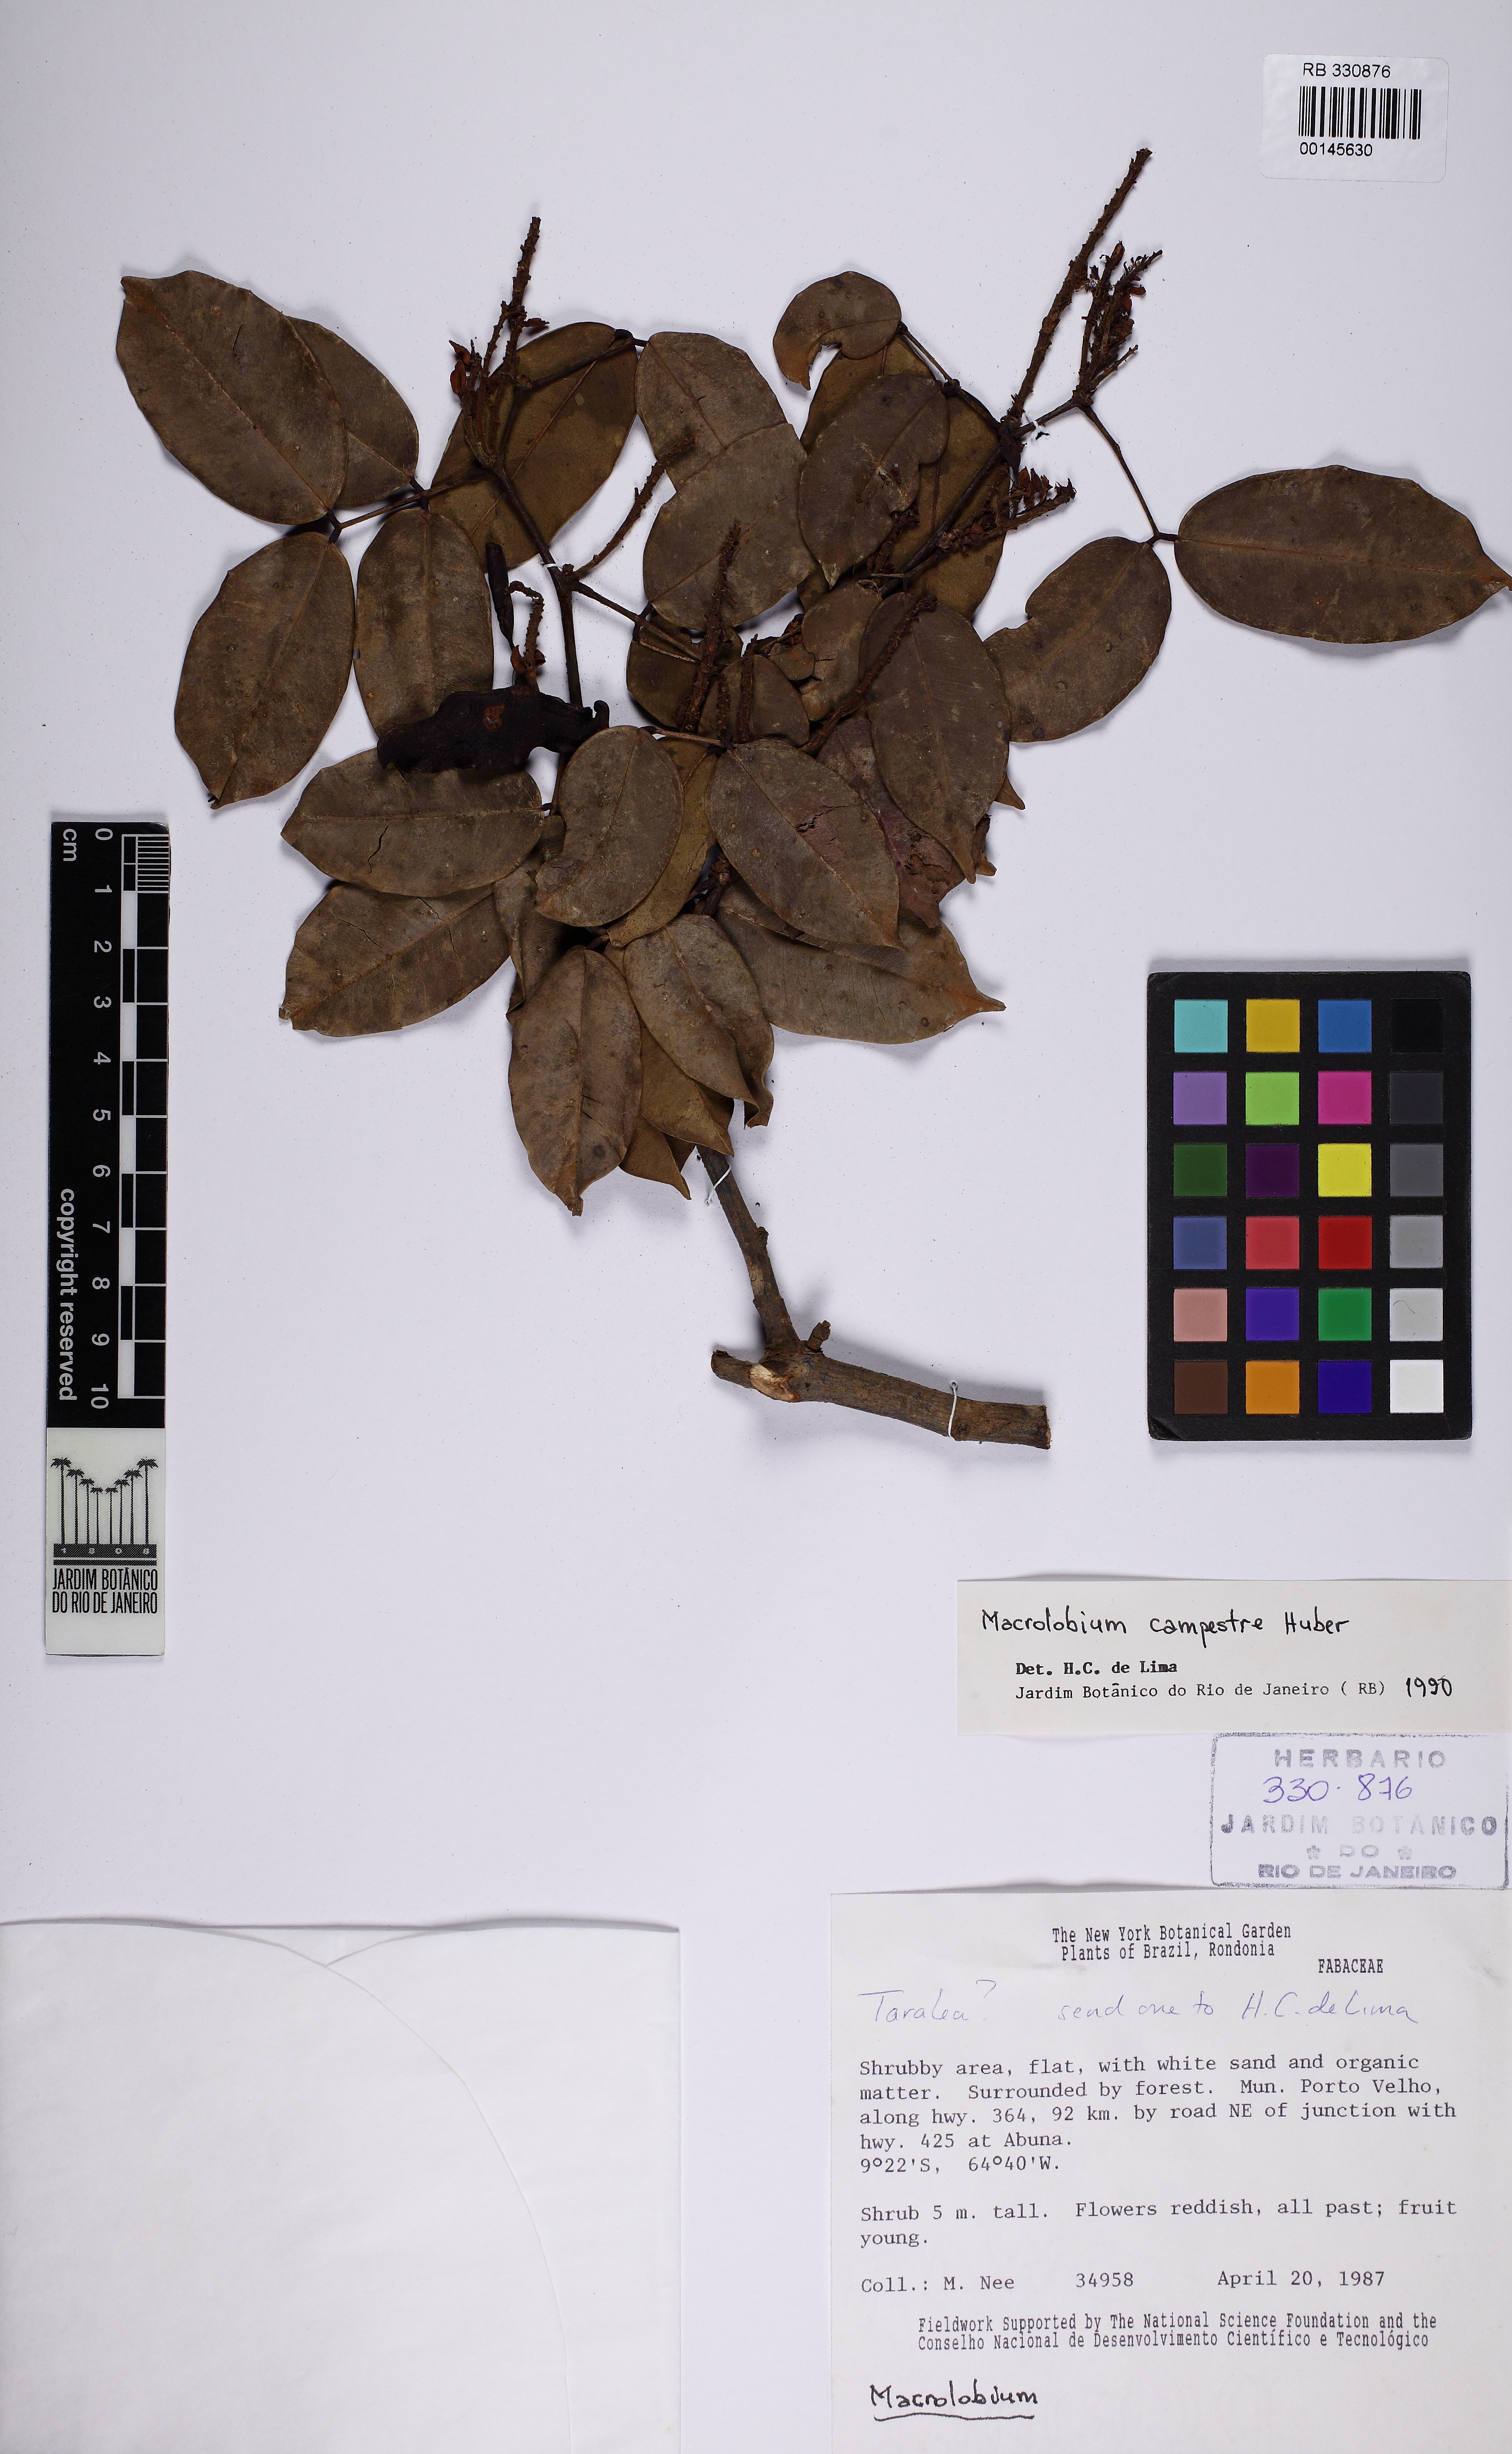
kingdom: Plantae
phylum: Tracheophyta
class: Magnoliopsida
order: Fabales
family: Fabaceae
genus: Macrolobium
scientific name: Macrolobium campestre
